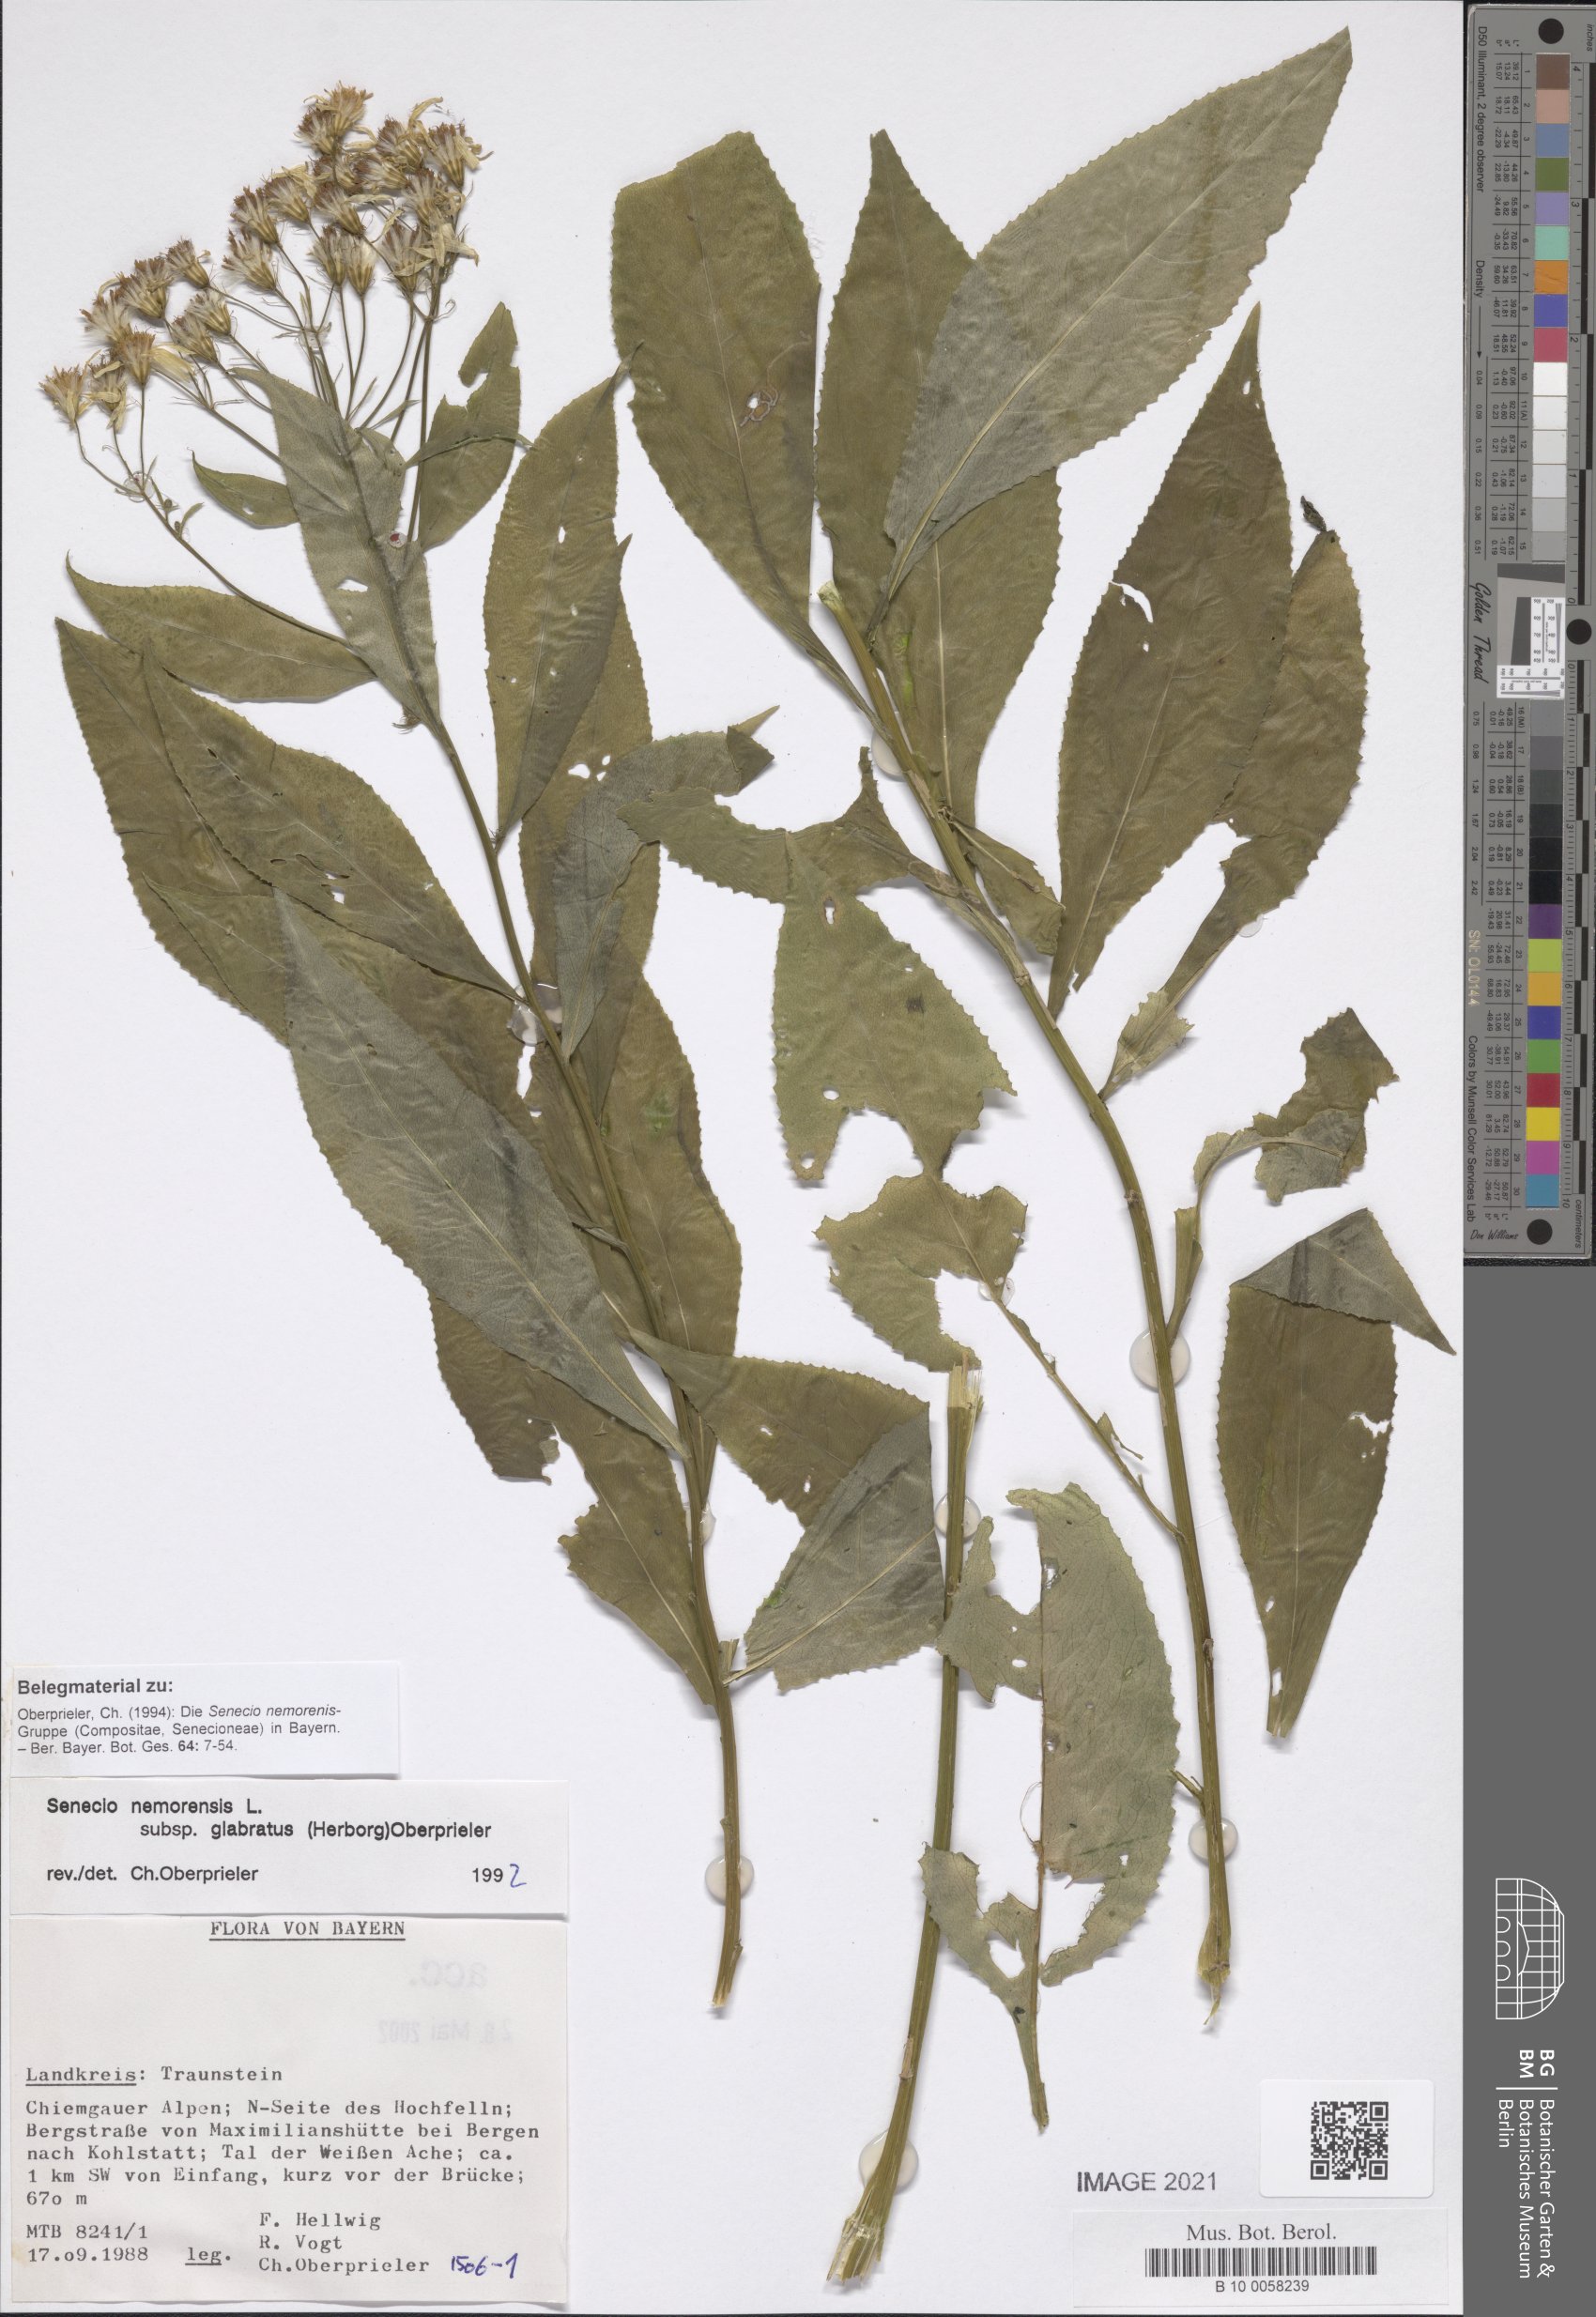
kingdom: Plantae
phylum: Tracheophyta
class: Magnoliopsida
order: Asterales
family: Asteraceae
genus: Senecio
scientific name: Senecio germanicus
